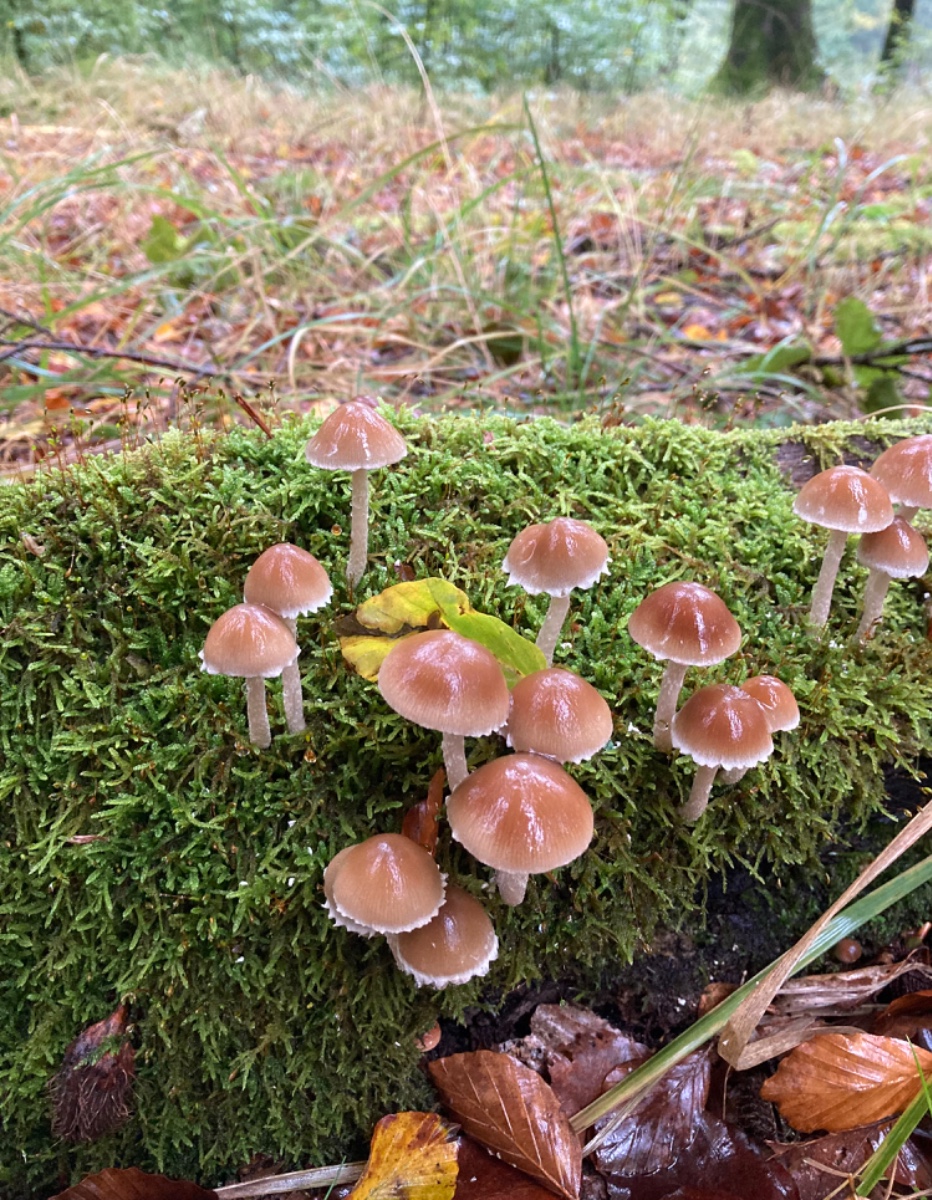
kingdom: Fungi
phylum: Basidiomycota
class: Agaricomycetes
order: Agaricales
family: Psathyrellaceae
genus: Psathyrella
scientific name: Psathyrella spintrigeroides
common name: tandet mørkhat
